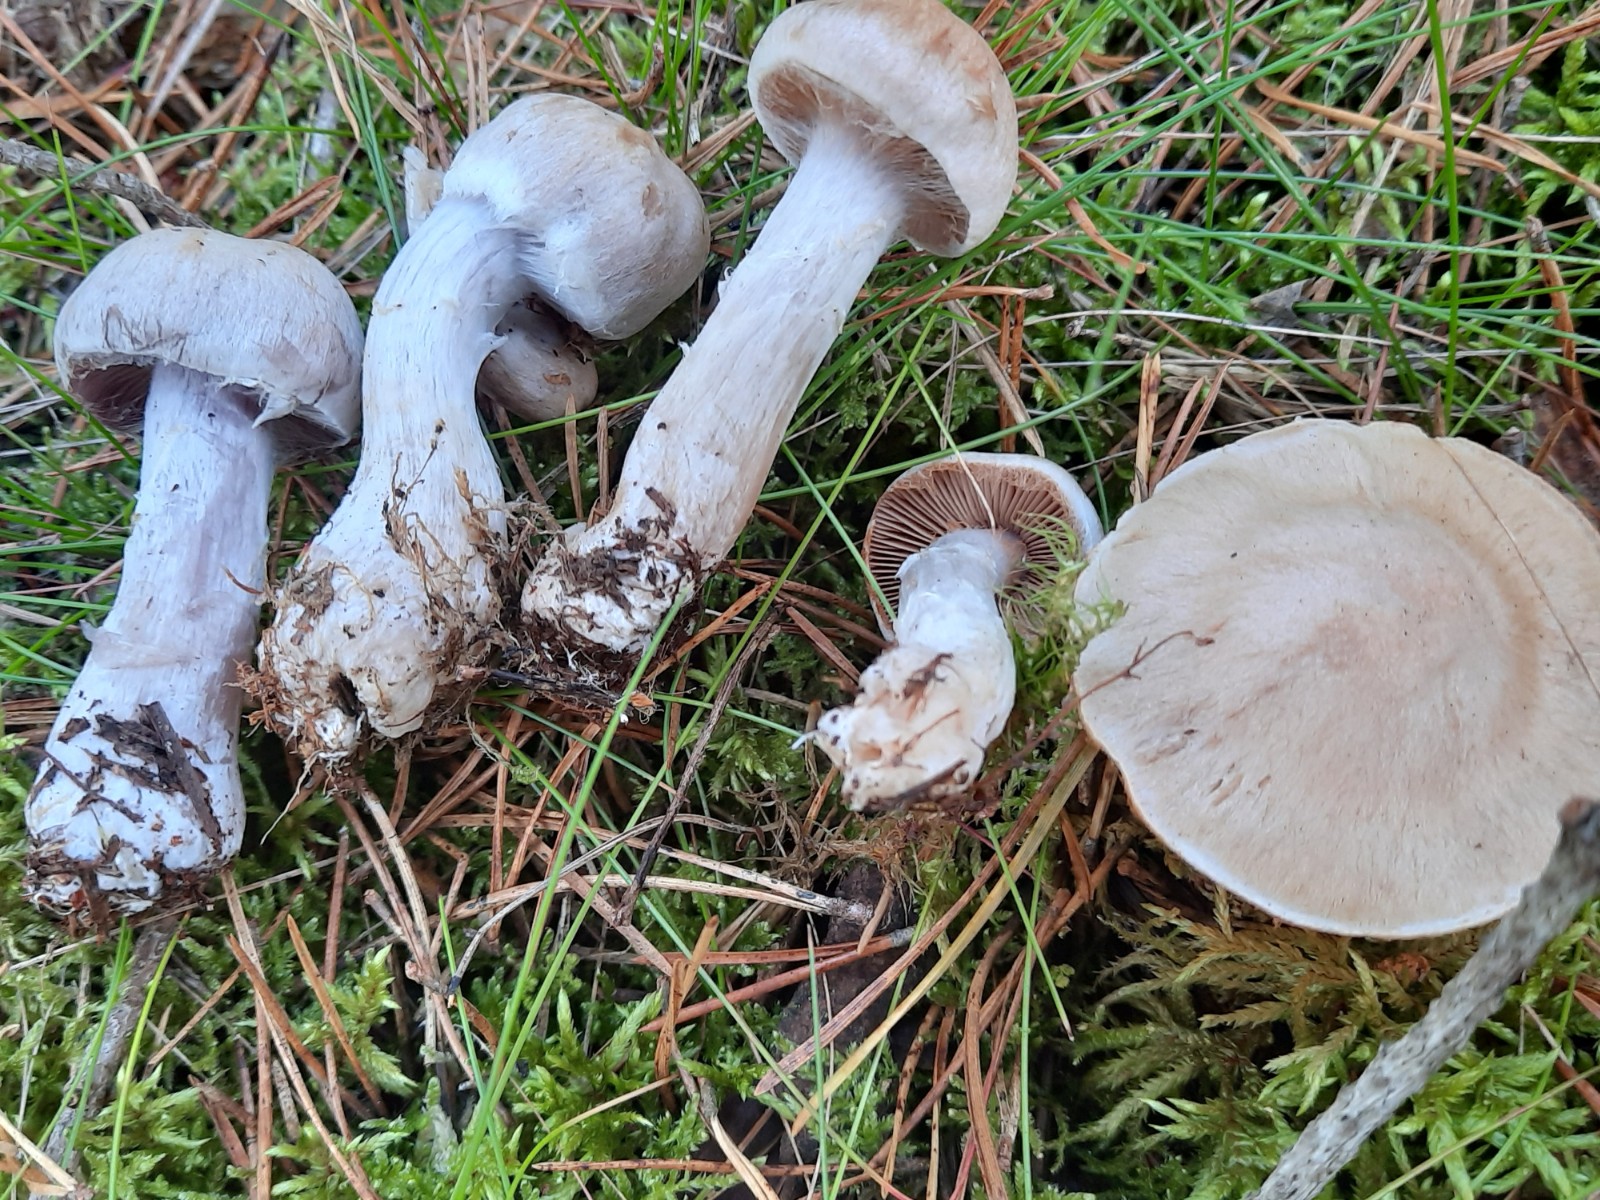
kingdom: Fungi
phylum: Basidiomycota
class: Agaricomycetes
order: Agaricales
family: Cortinariaceae
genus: Cortinarius
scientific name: Cortinarius quarciticus
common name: kvarts-slørhat
